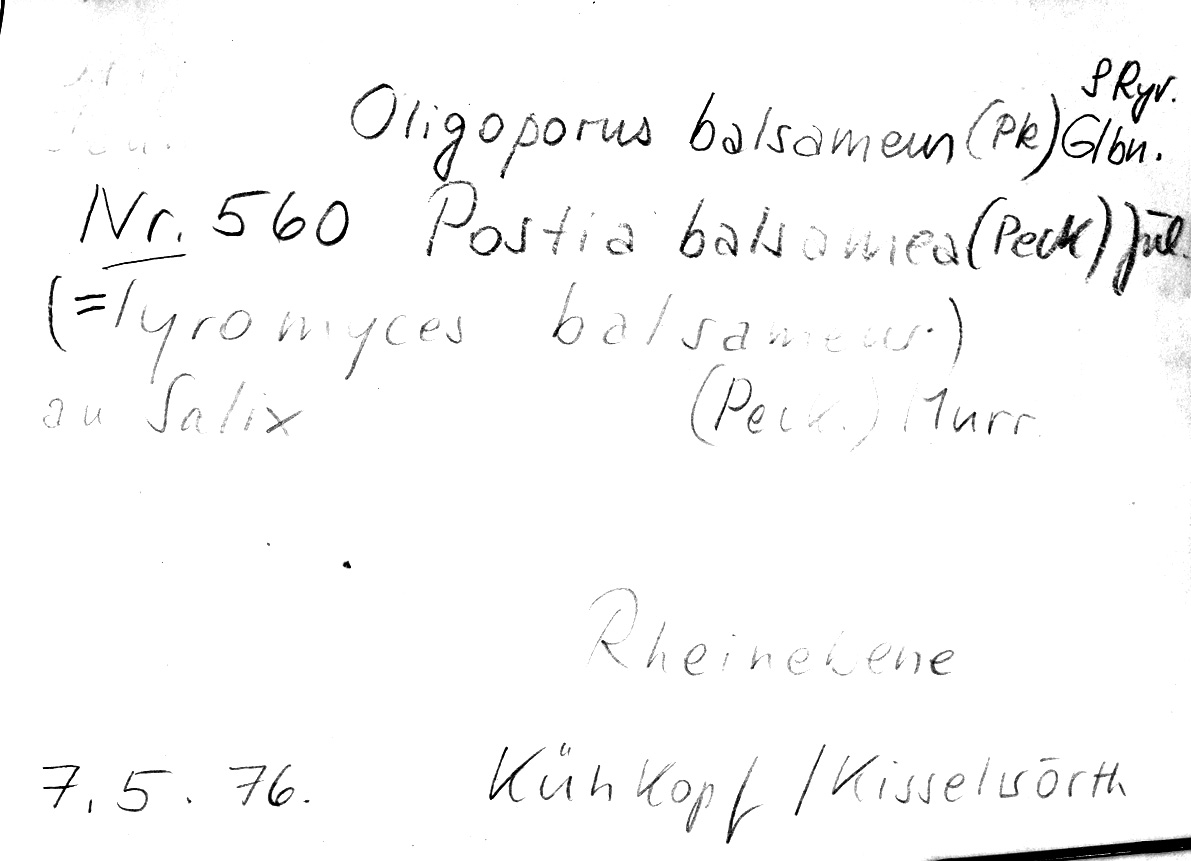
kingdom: Fungi
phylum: Basidiomycota
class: Agaricomycetes
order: Polyporales
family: Dacryobolaceae
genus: Postia
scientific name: Postia balsamea
